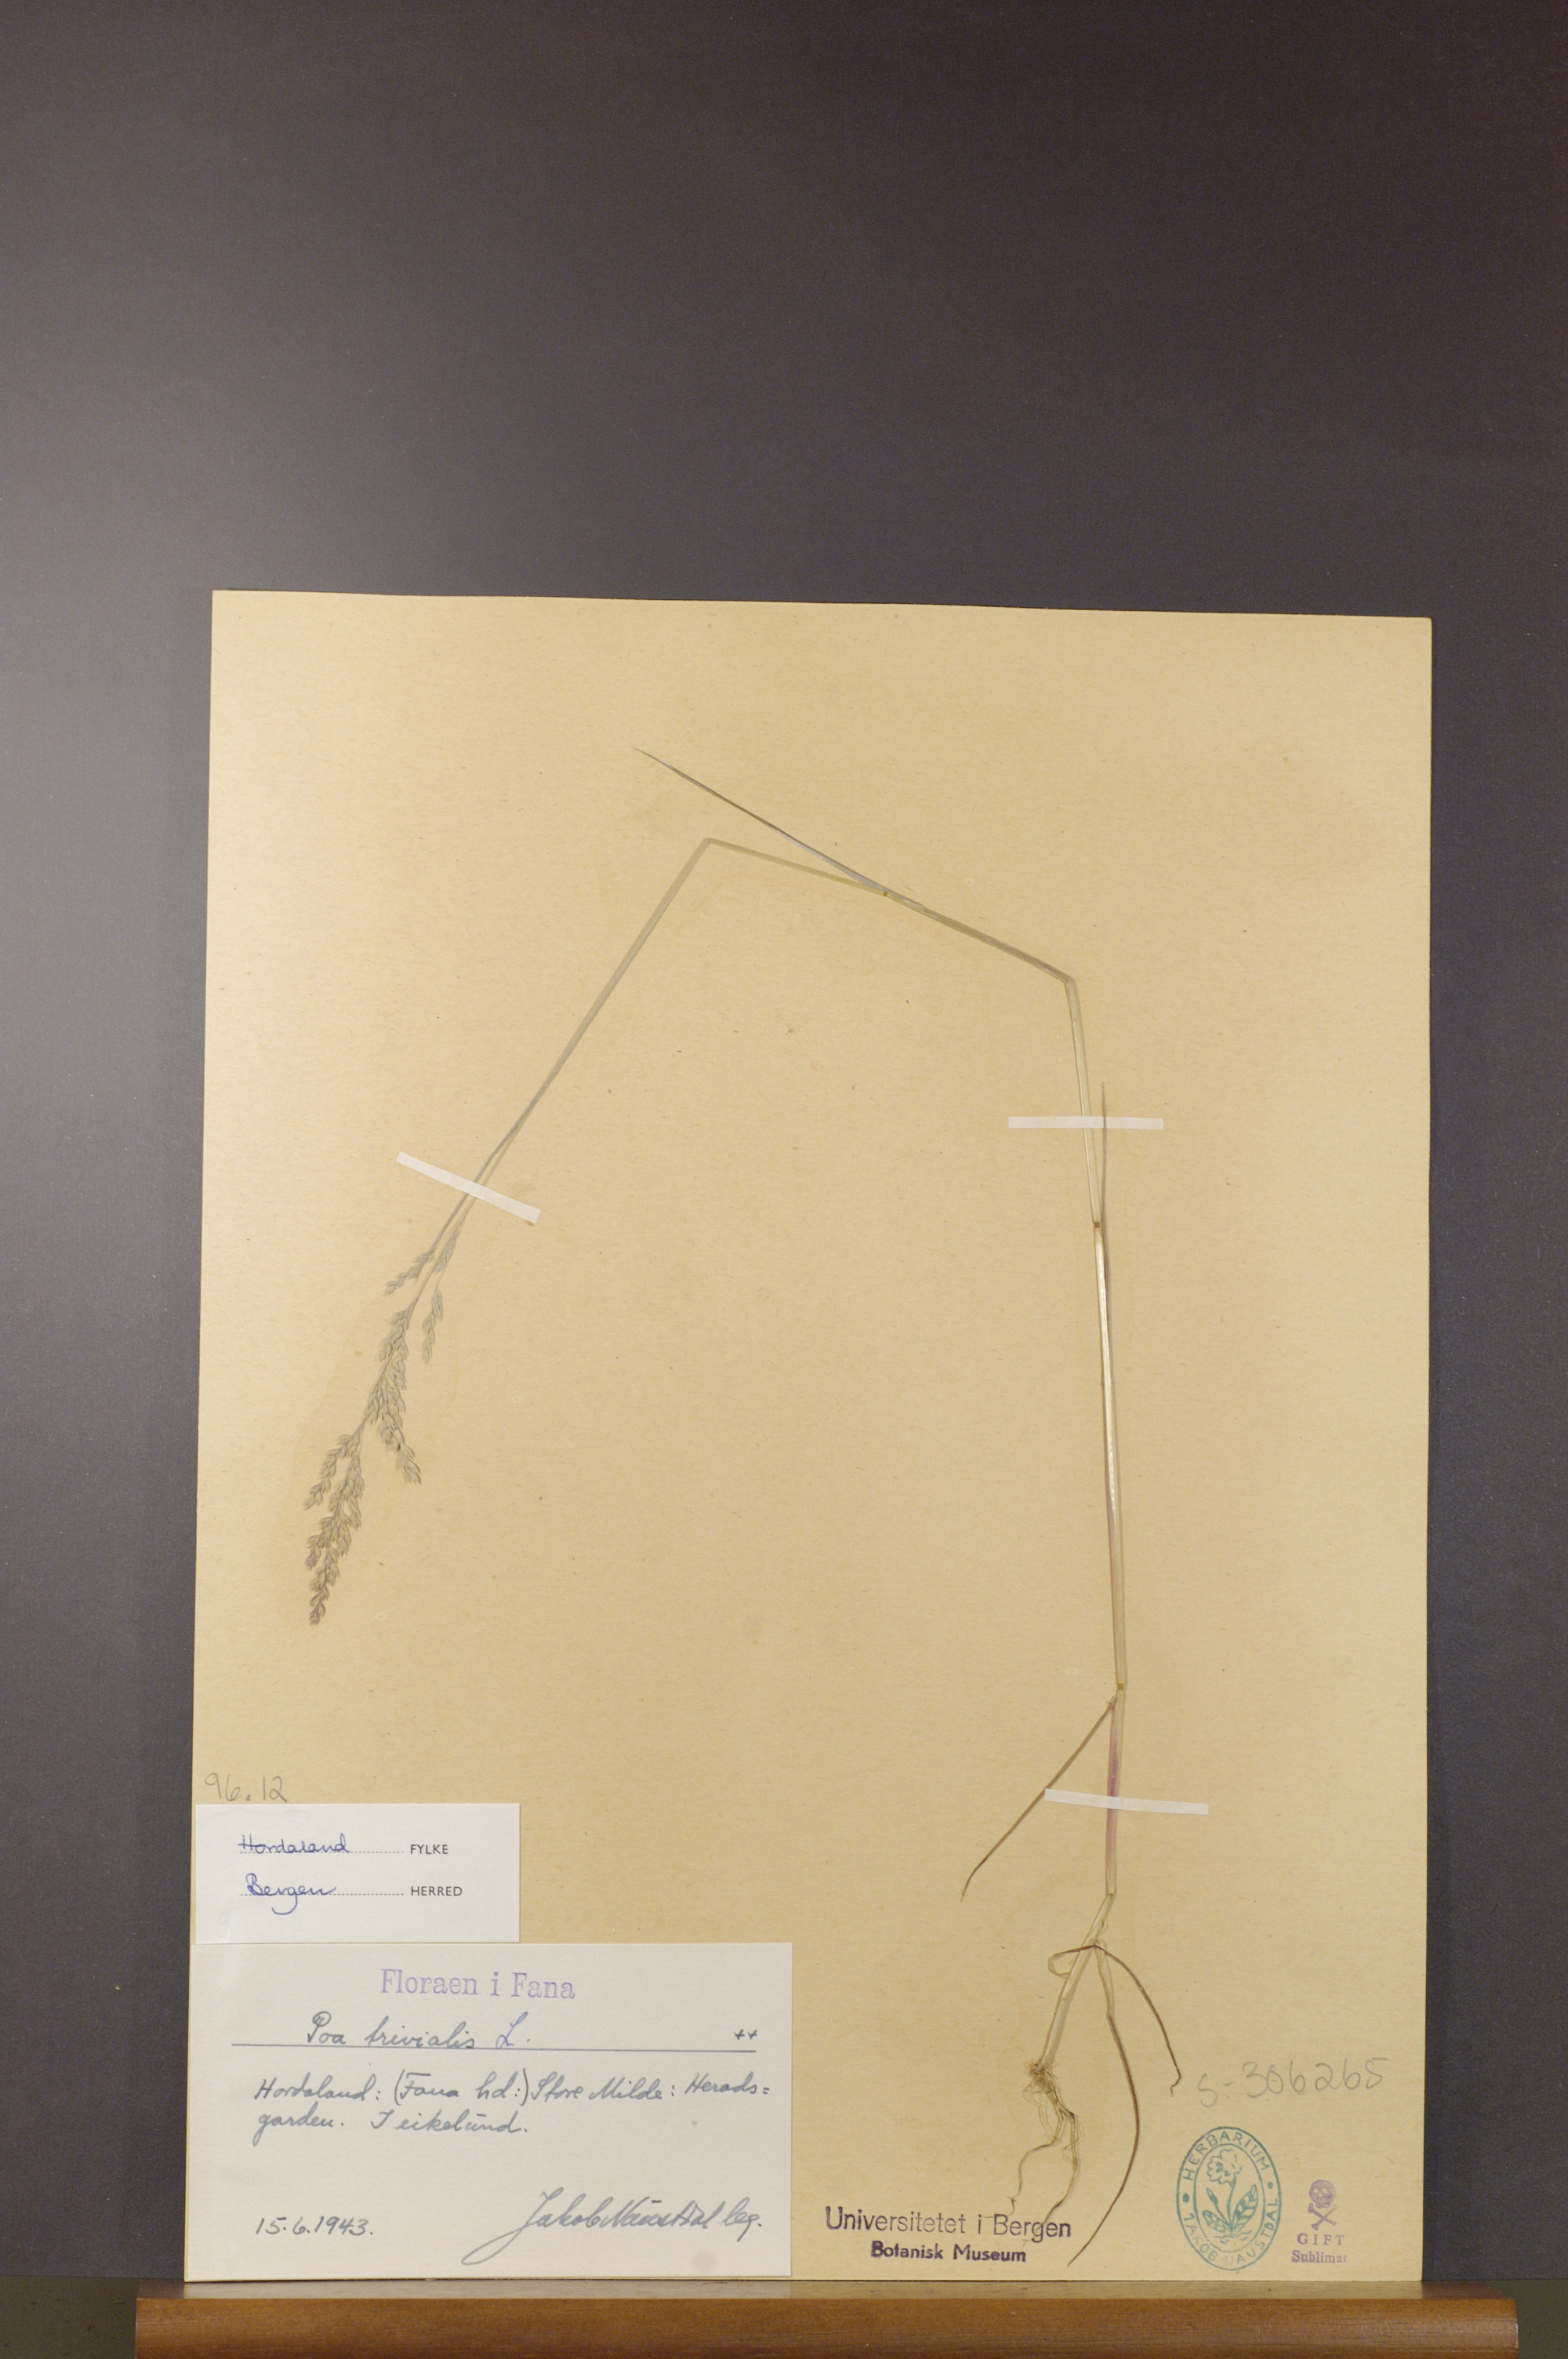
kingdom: Plantae
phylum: Tracheophyta
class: Liliopsida
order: Poales
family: Poaceae
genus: Poa
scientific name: Poa trivialis
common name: Rough bluegrass
